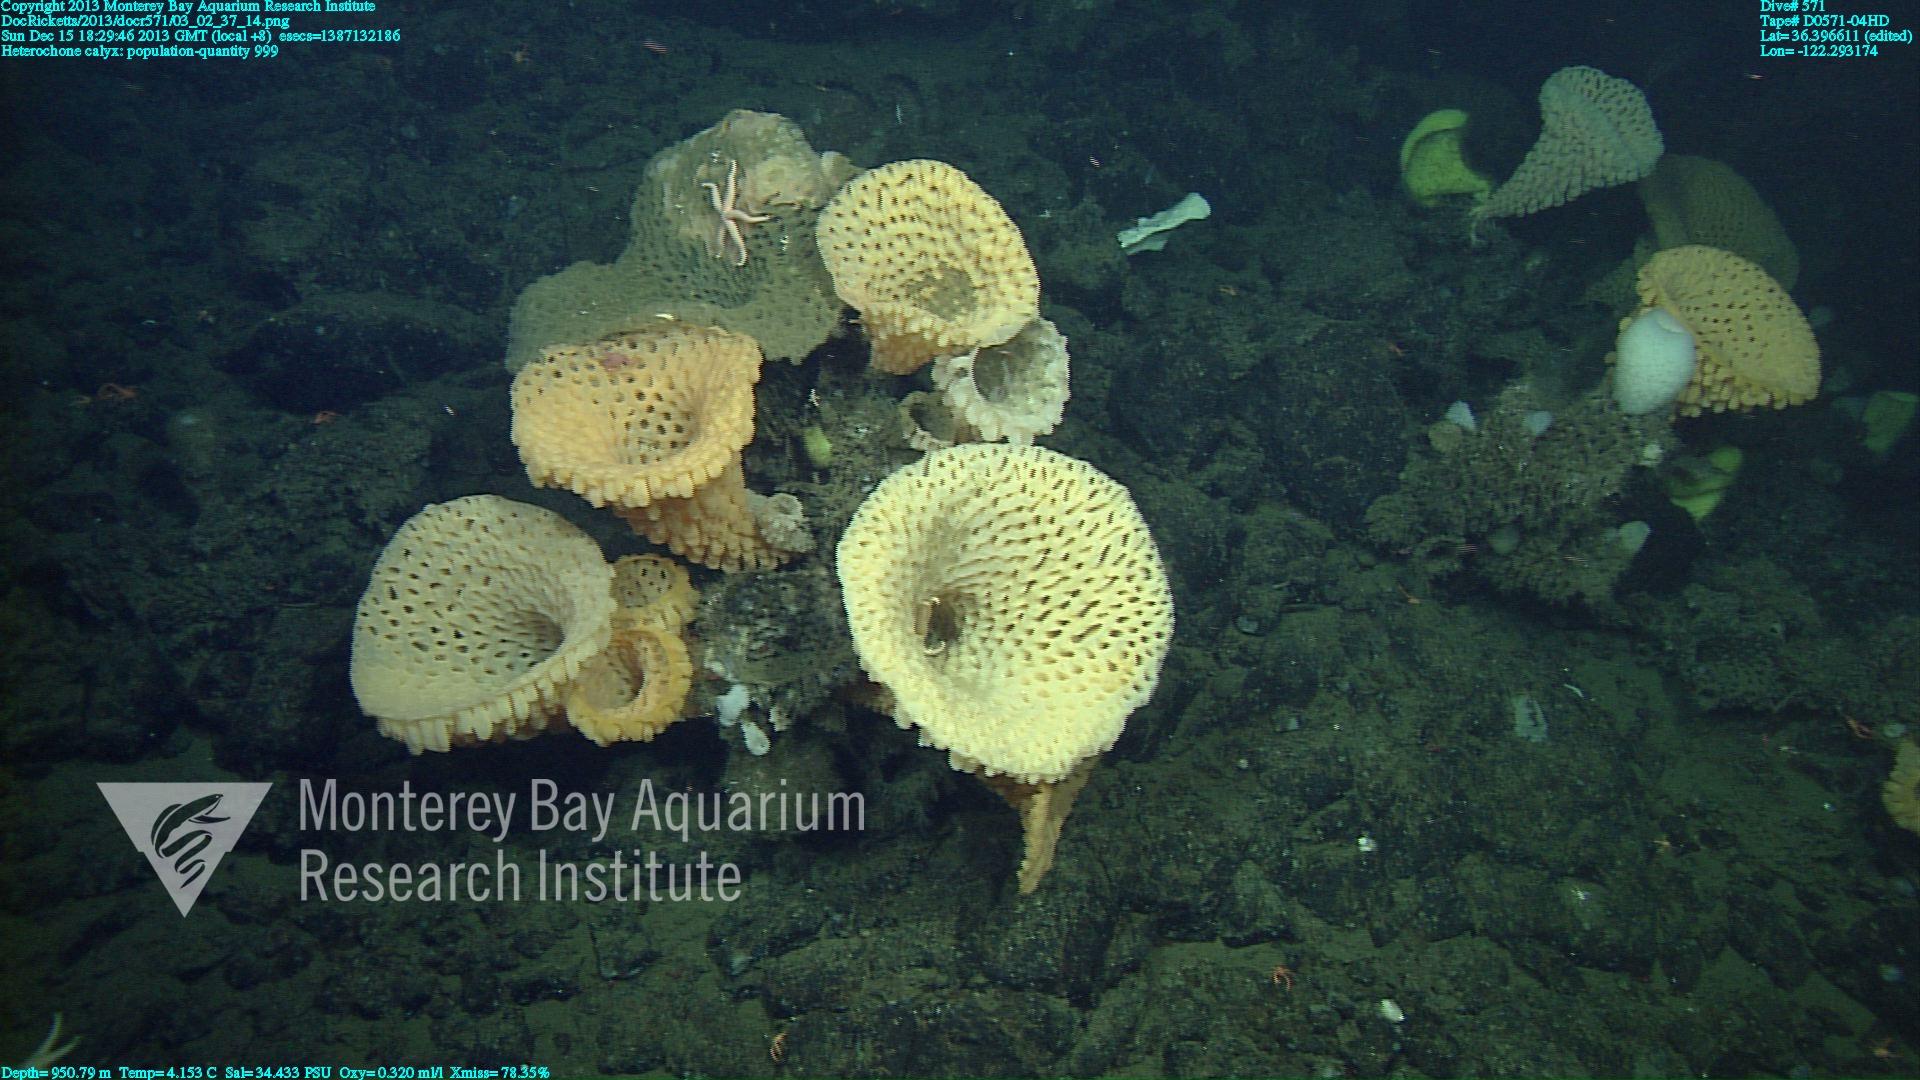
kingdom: Animalia
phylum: Porifera
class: Hexactinellida
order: Sceptrulophora
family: Aphrocallistidae
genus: Heterochone
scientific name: Heterochone calyx
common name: Fingered goblet glass sponge
